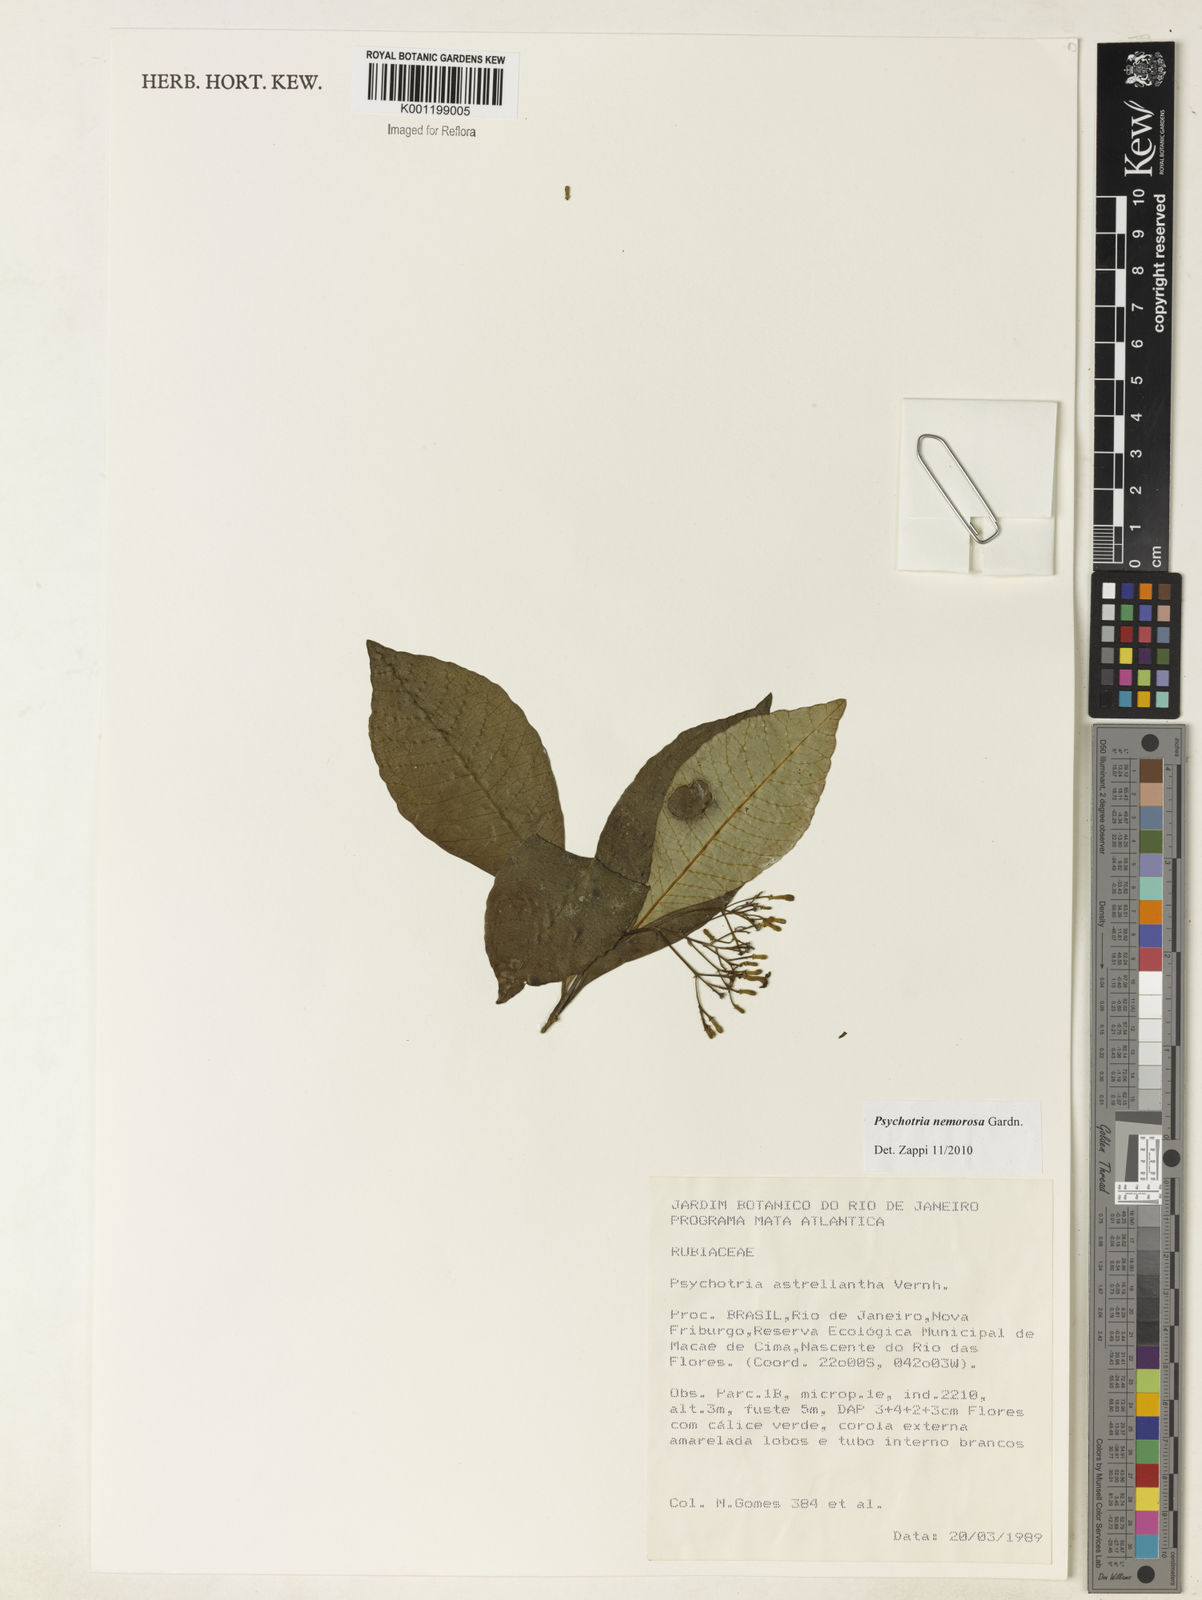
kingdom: Plantae
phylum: Tracheophyta
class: Magnoliopsida
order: Gentianales
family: Rubiaceae
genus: Psychotria
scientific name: Psychotria leiocarpa
